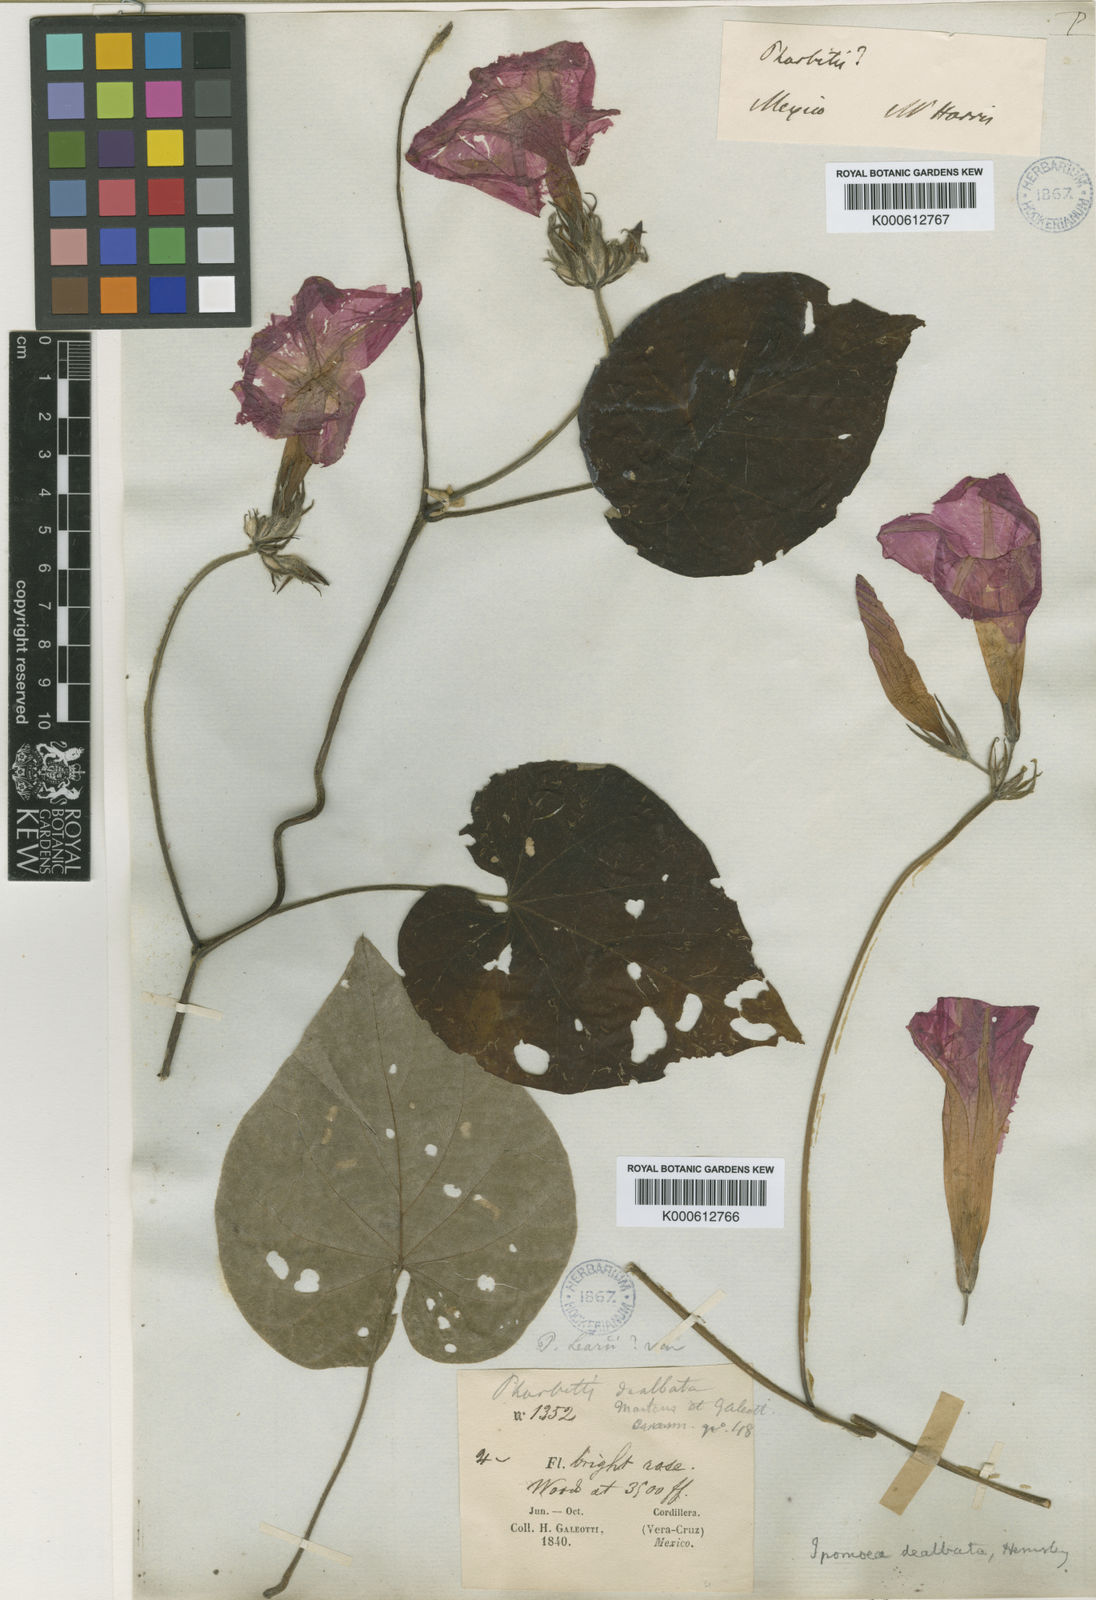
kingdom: Plantae
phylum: Tracheophyta
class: Magnoliopsida
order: Solanales
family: Convolvulaceae
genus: Ipomoea
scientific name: Ipomoea mairetii
